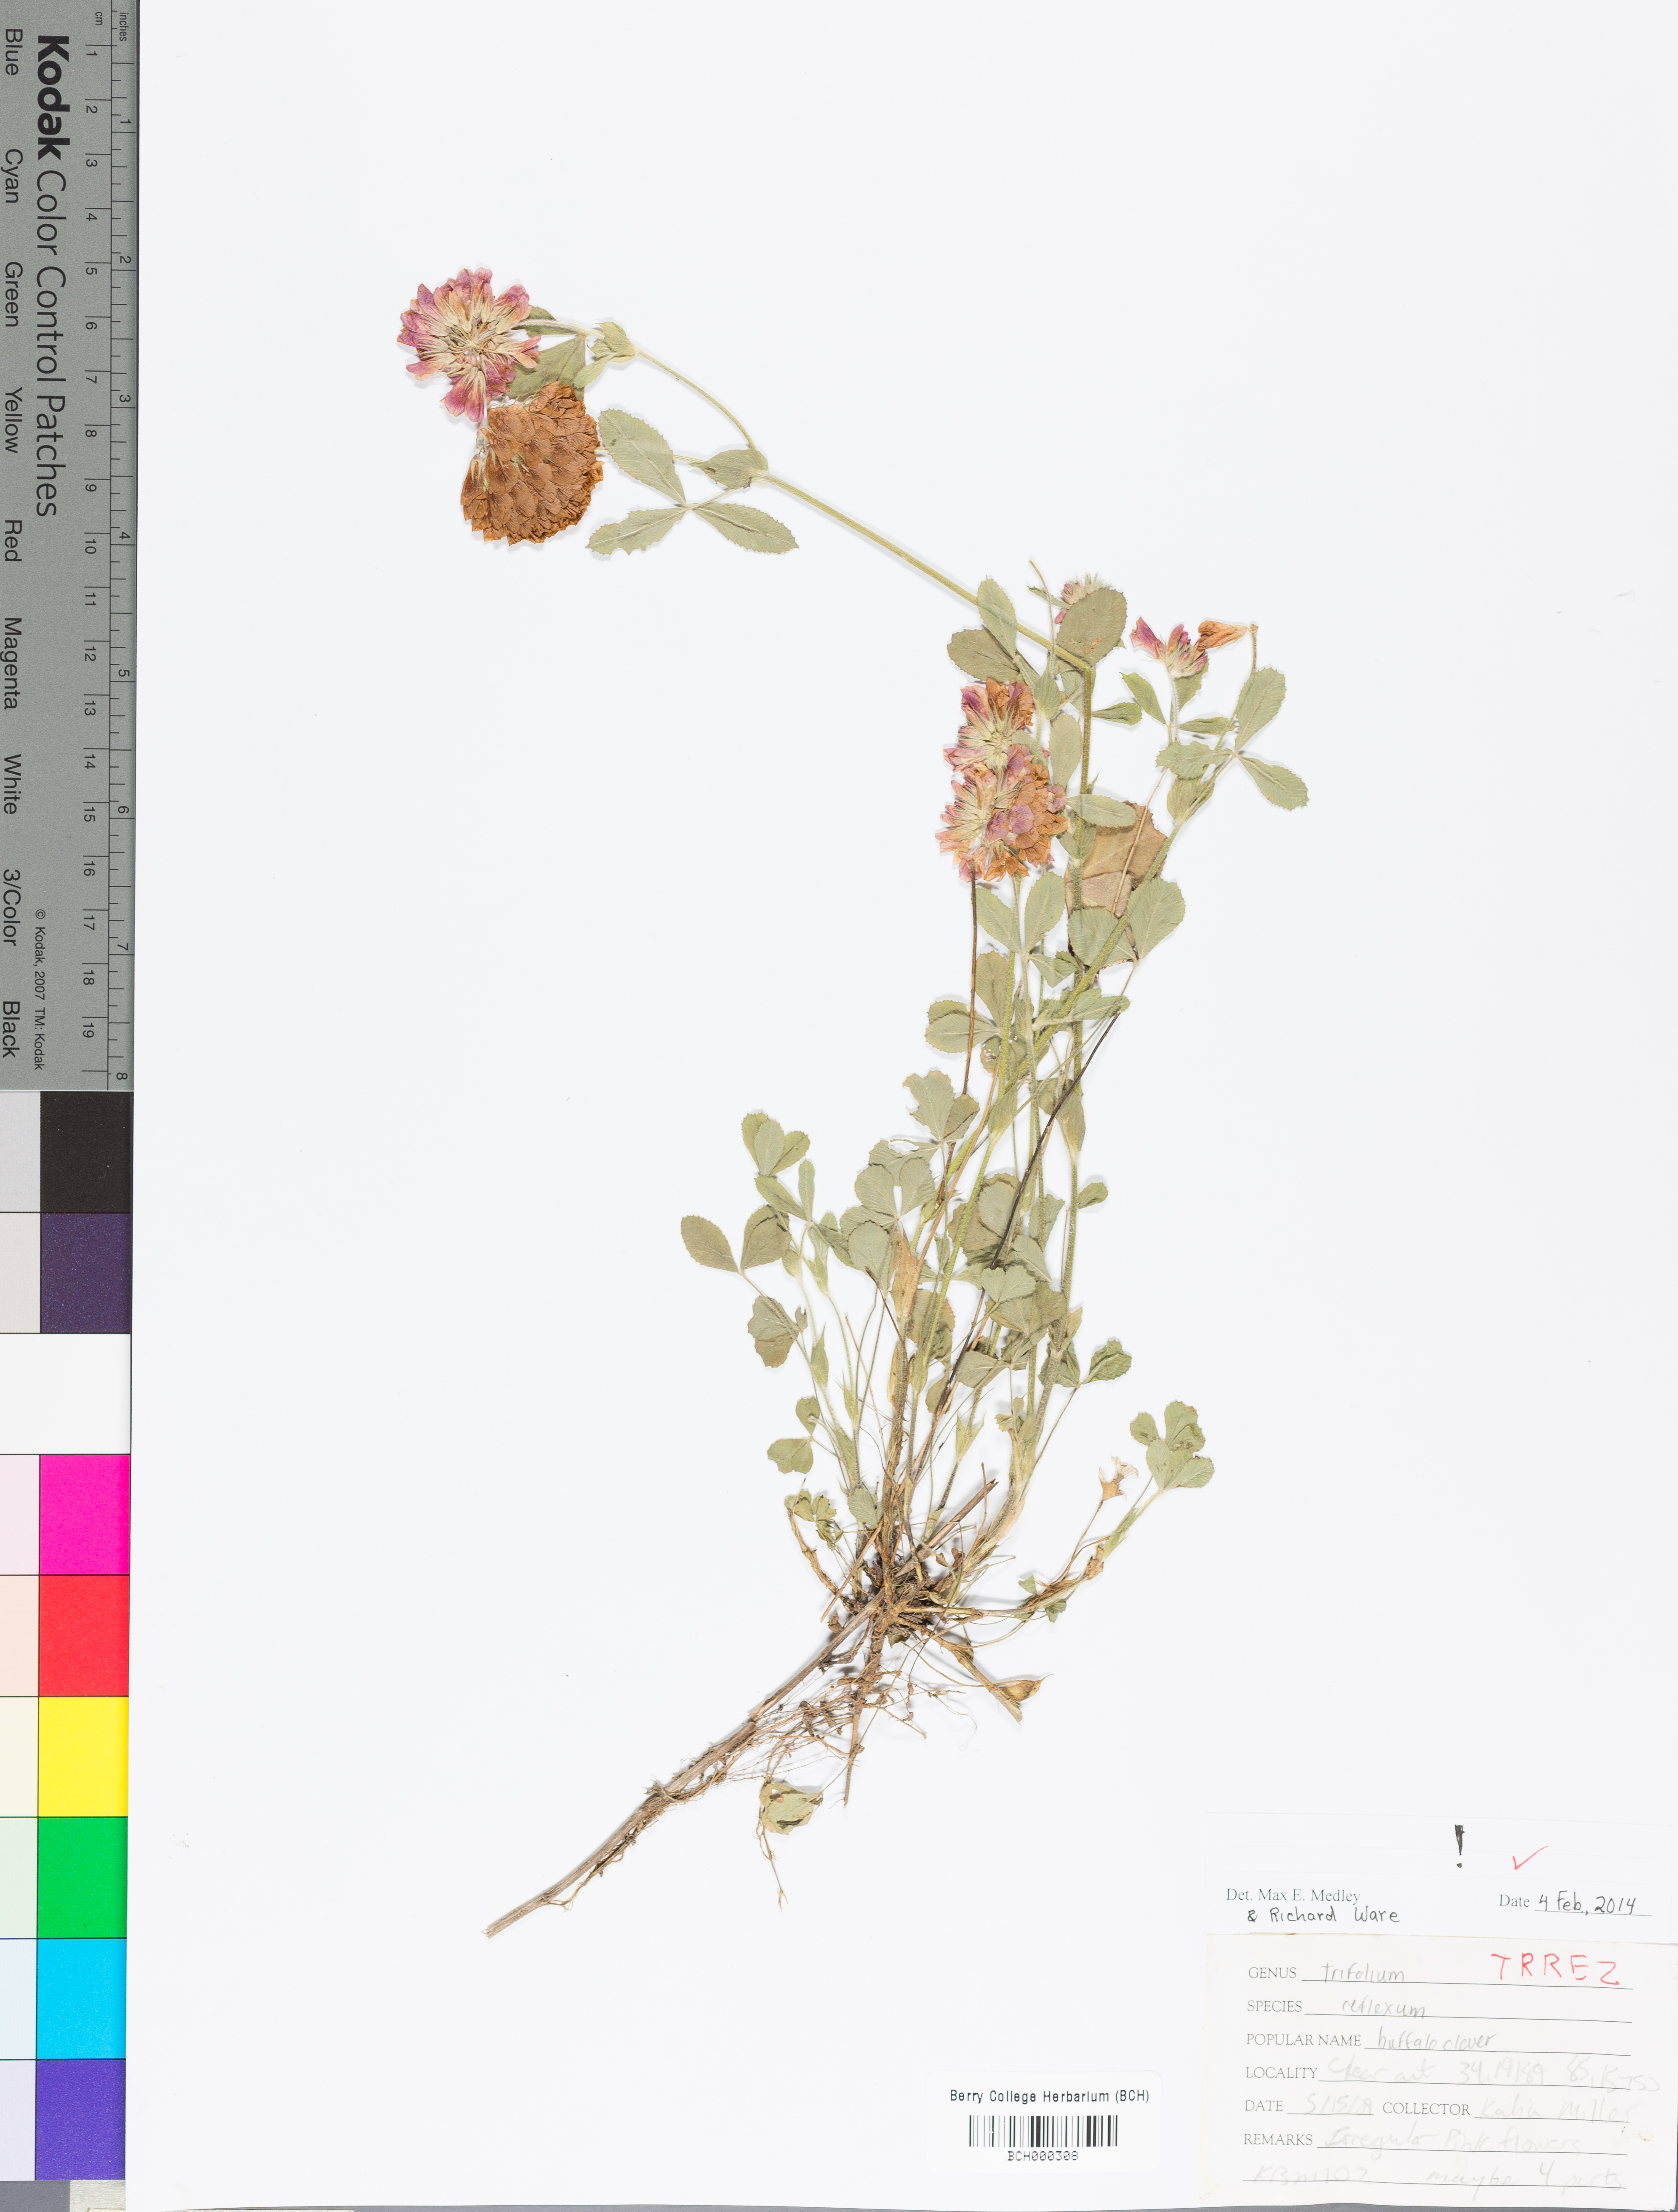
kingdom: Plantae
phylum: Tracheophyta
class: Magnoliopsida
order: Fabales
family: Fabaceae
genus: Trifolium
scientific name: Trifolium reflexum
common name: Buffalo clover
